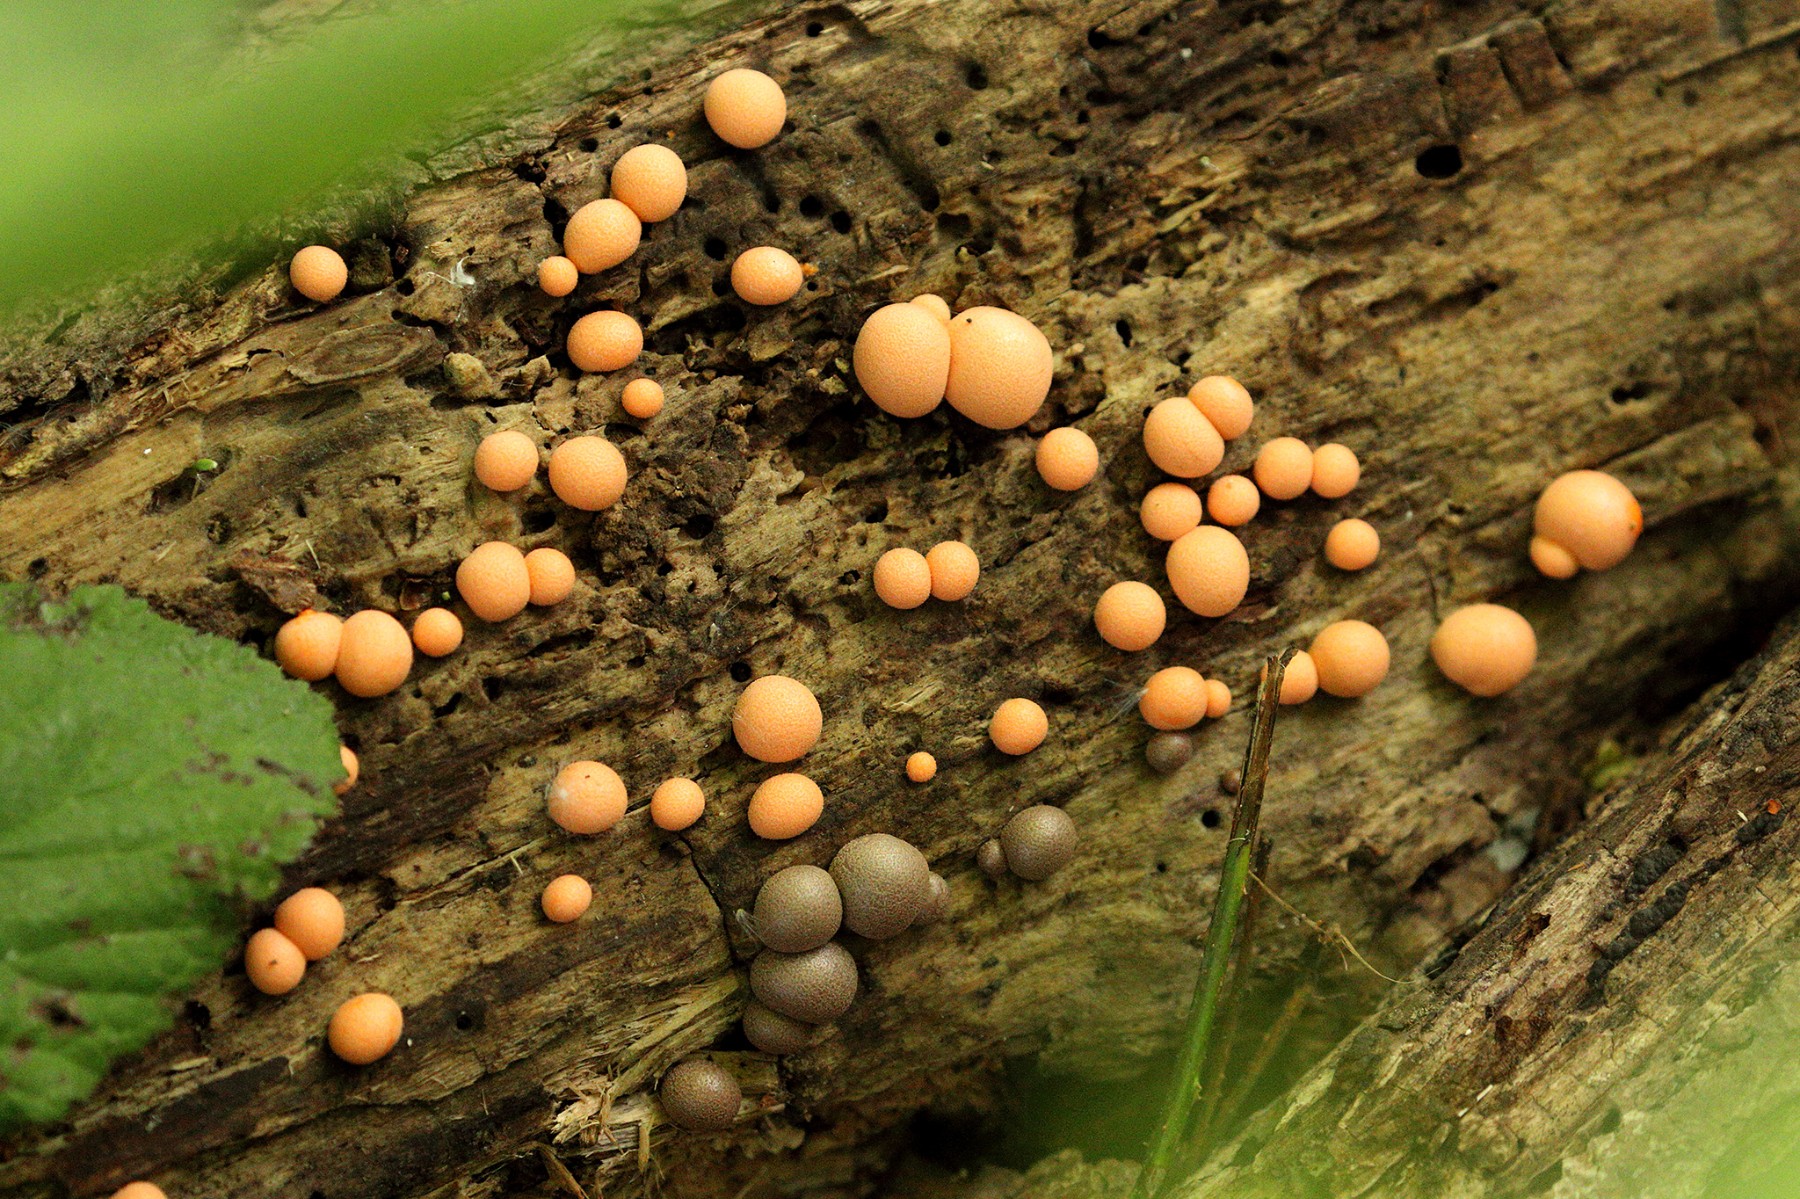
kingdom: Protozoa
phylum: Mycetozoa
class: Myxomycetes
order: Cribrariales
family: Tubiferaceae
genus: Lycogala
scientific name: Lycogala epidendrum
